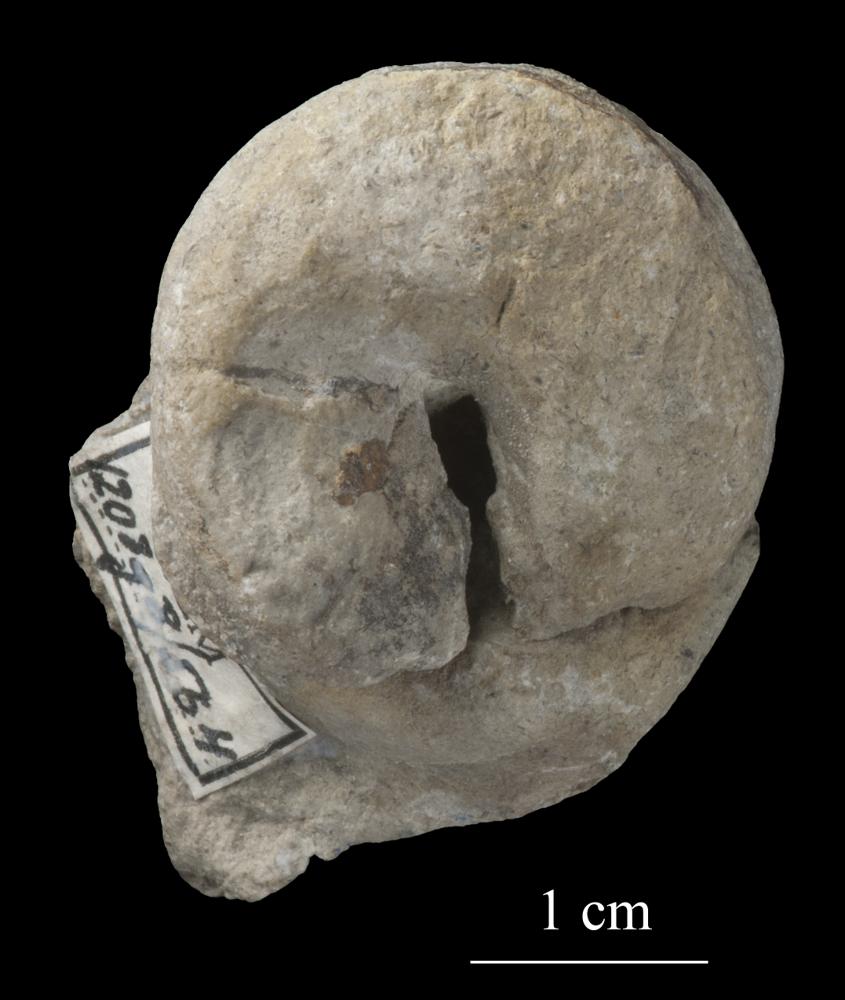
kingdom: Animalia
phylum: Mollusca
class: Gastropoda
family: Lophospiridae
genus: Lophospira
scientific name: Lophospira
